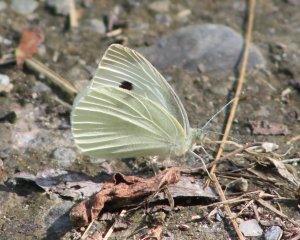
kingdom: Animalia
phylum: Arthropoda
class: Insecta
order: Lepidoptera
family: Pieridae
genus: Pieris
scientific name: Pieris rapae
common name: Cabbage White
